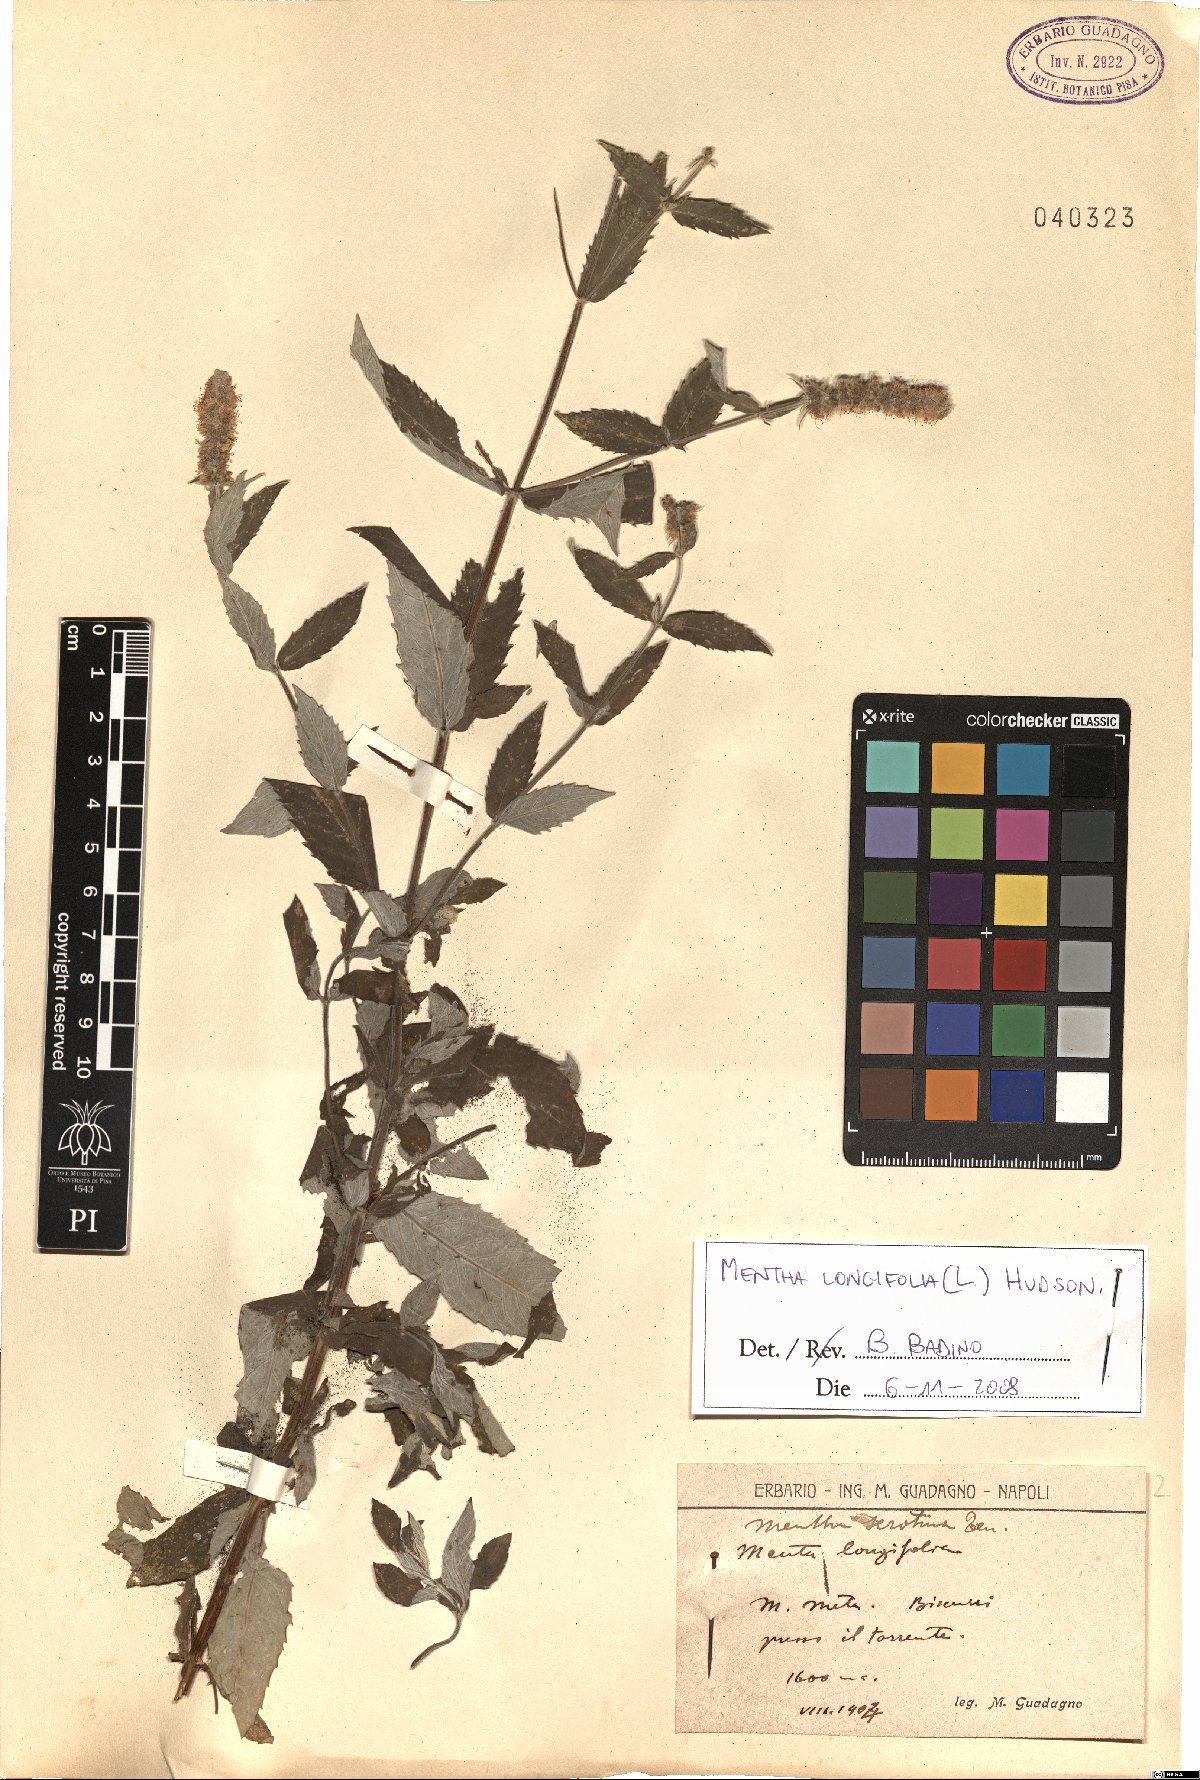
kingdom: Plantae
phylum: Tracheophyta
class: Magnoliopsida
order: Lamiales
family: Lamiaceae
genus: Mentha
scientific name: Mentha longifolia
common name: Horse mint
